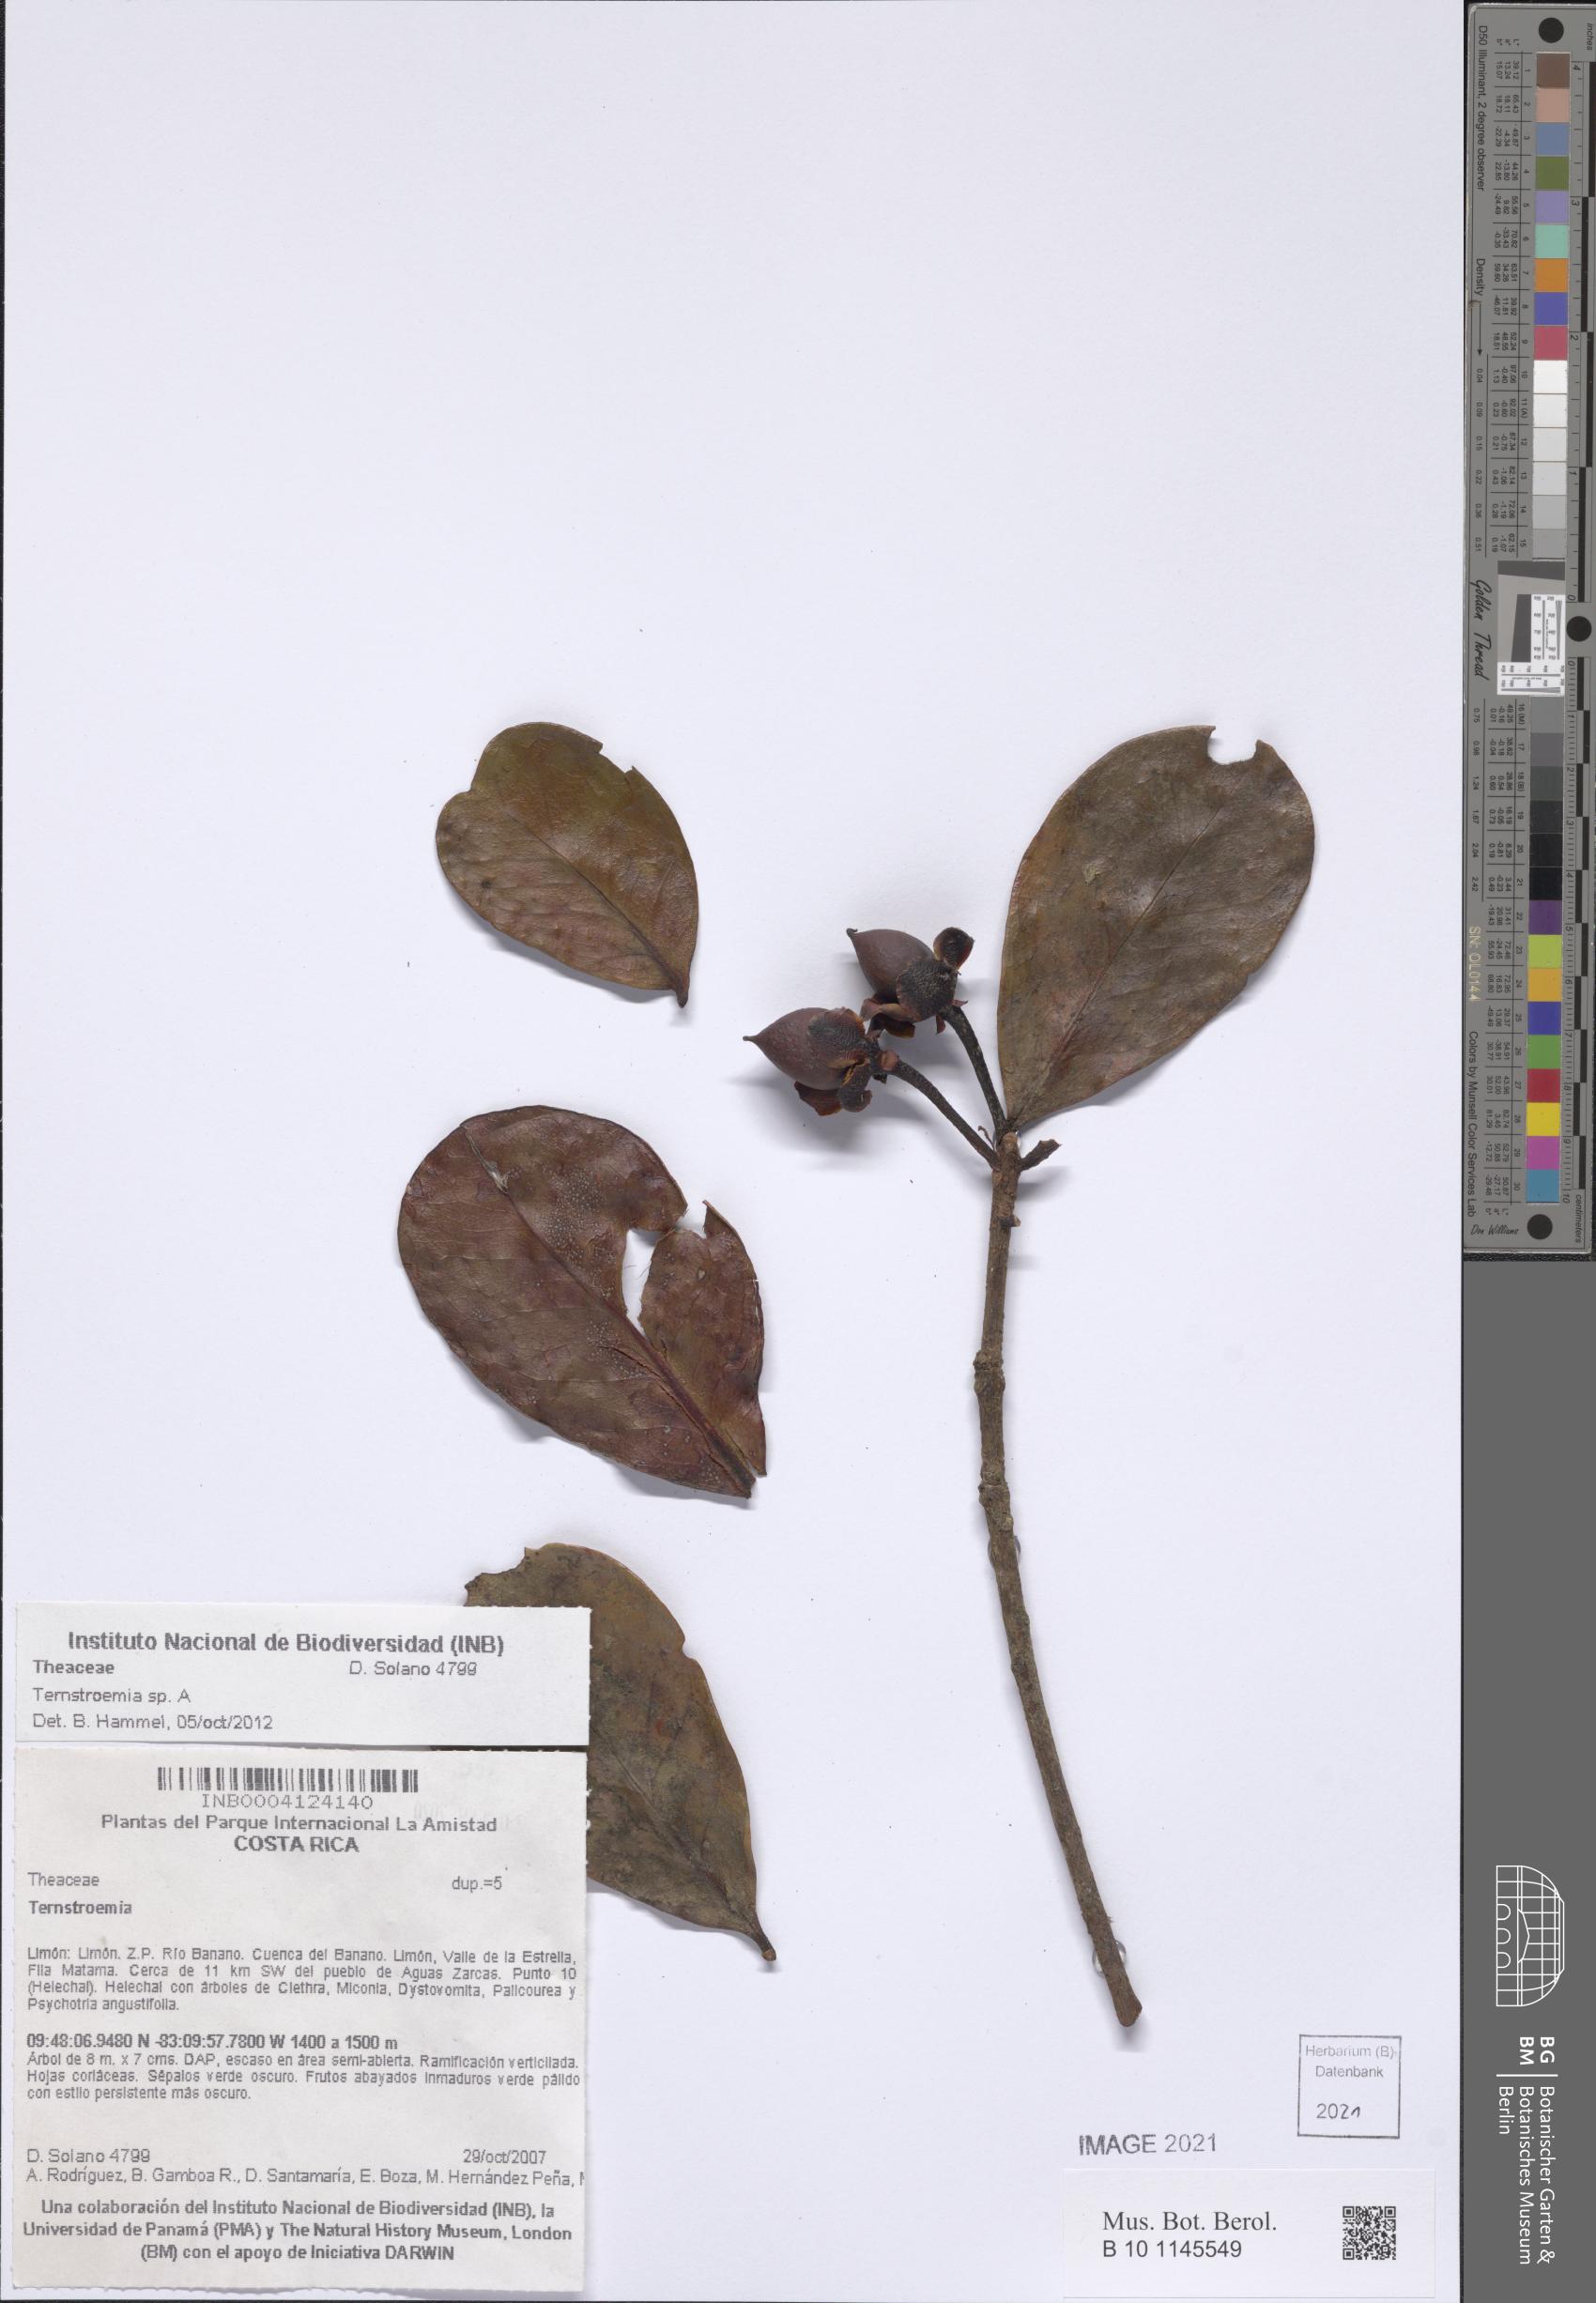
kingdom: Plantae
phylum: Tracheophyta
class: Magnoliopsida
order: Ericales
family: Pentaphylacaceae
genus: Ternstroemia
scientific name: Ternstroemia amistadensis
